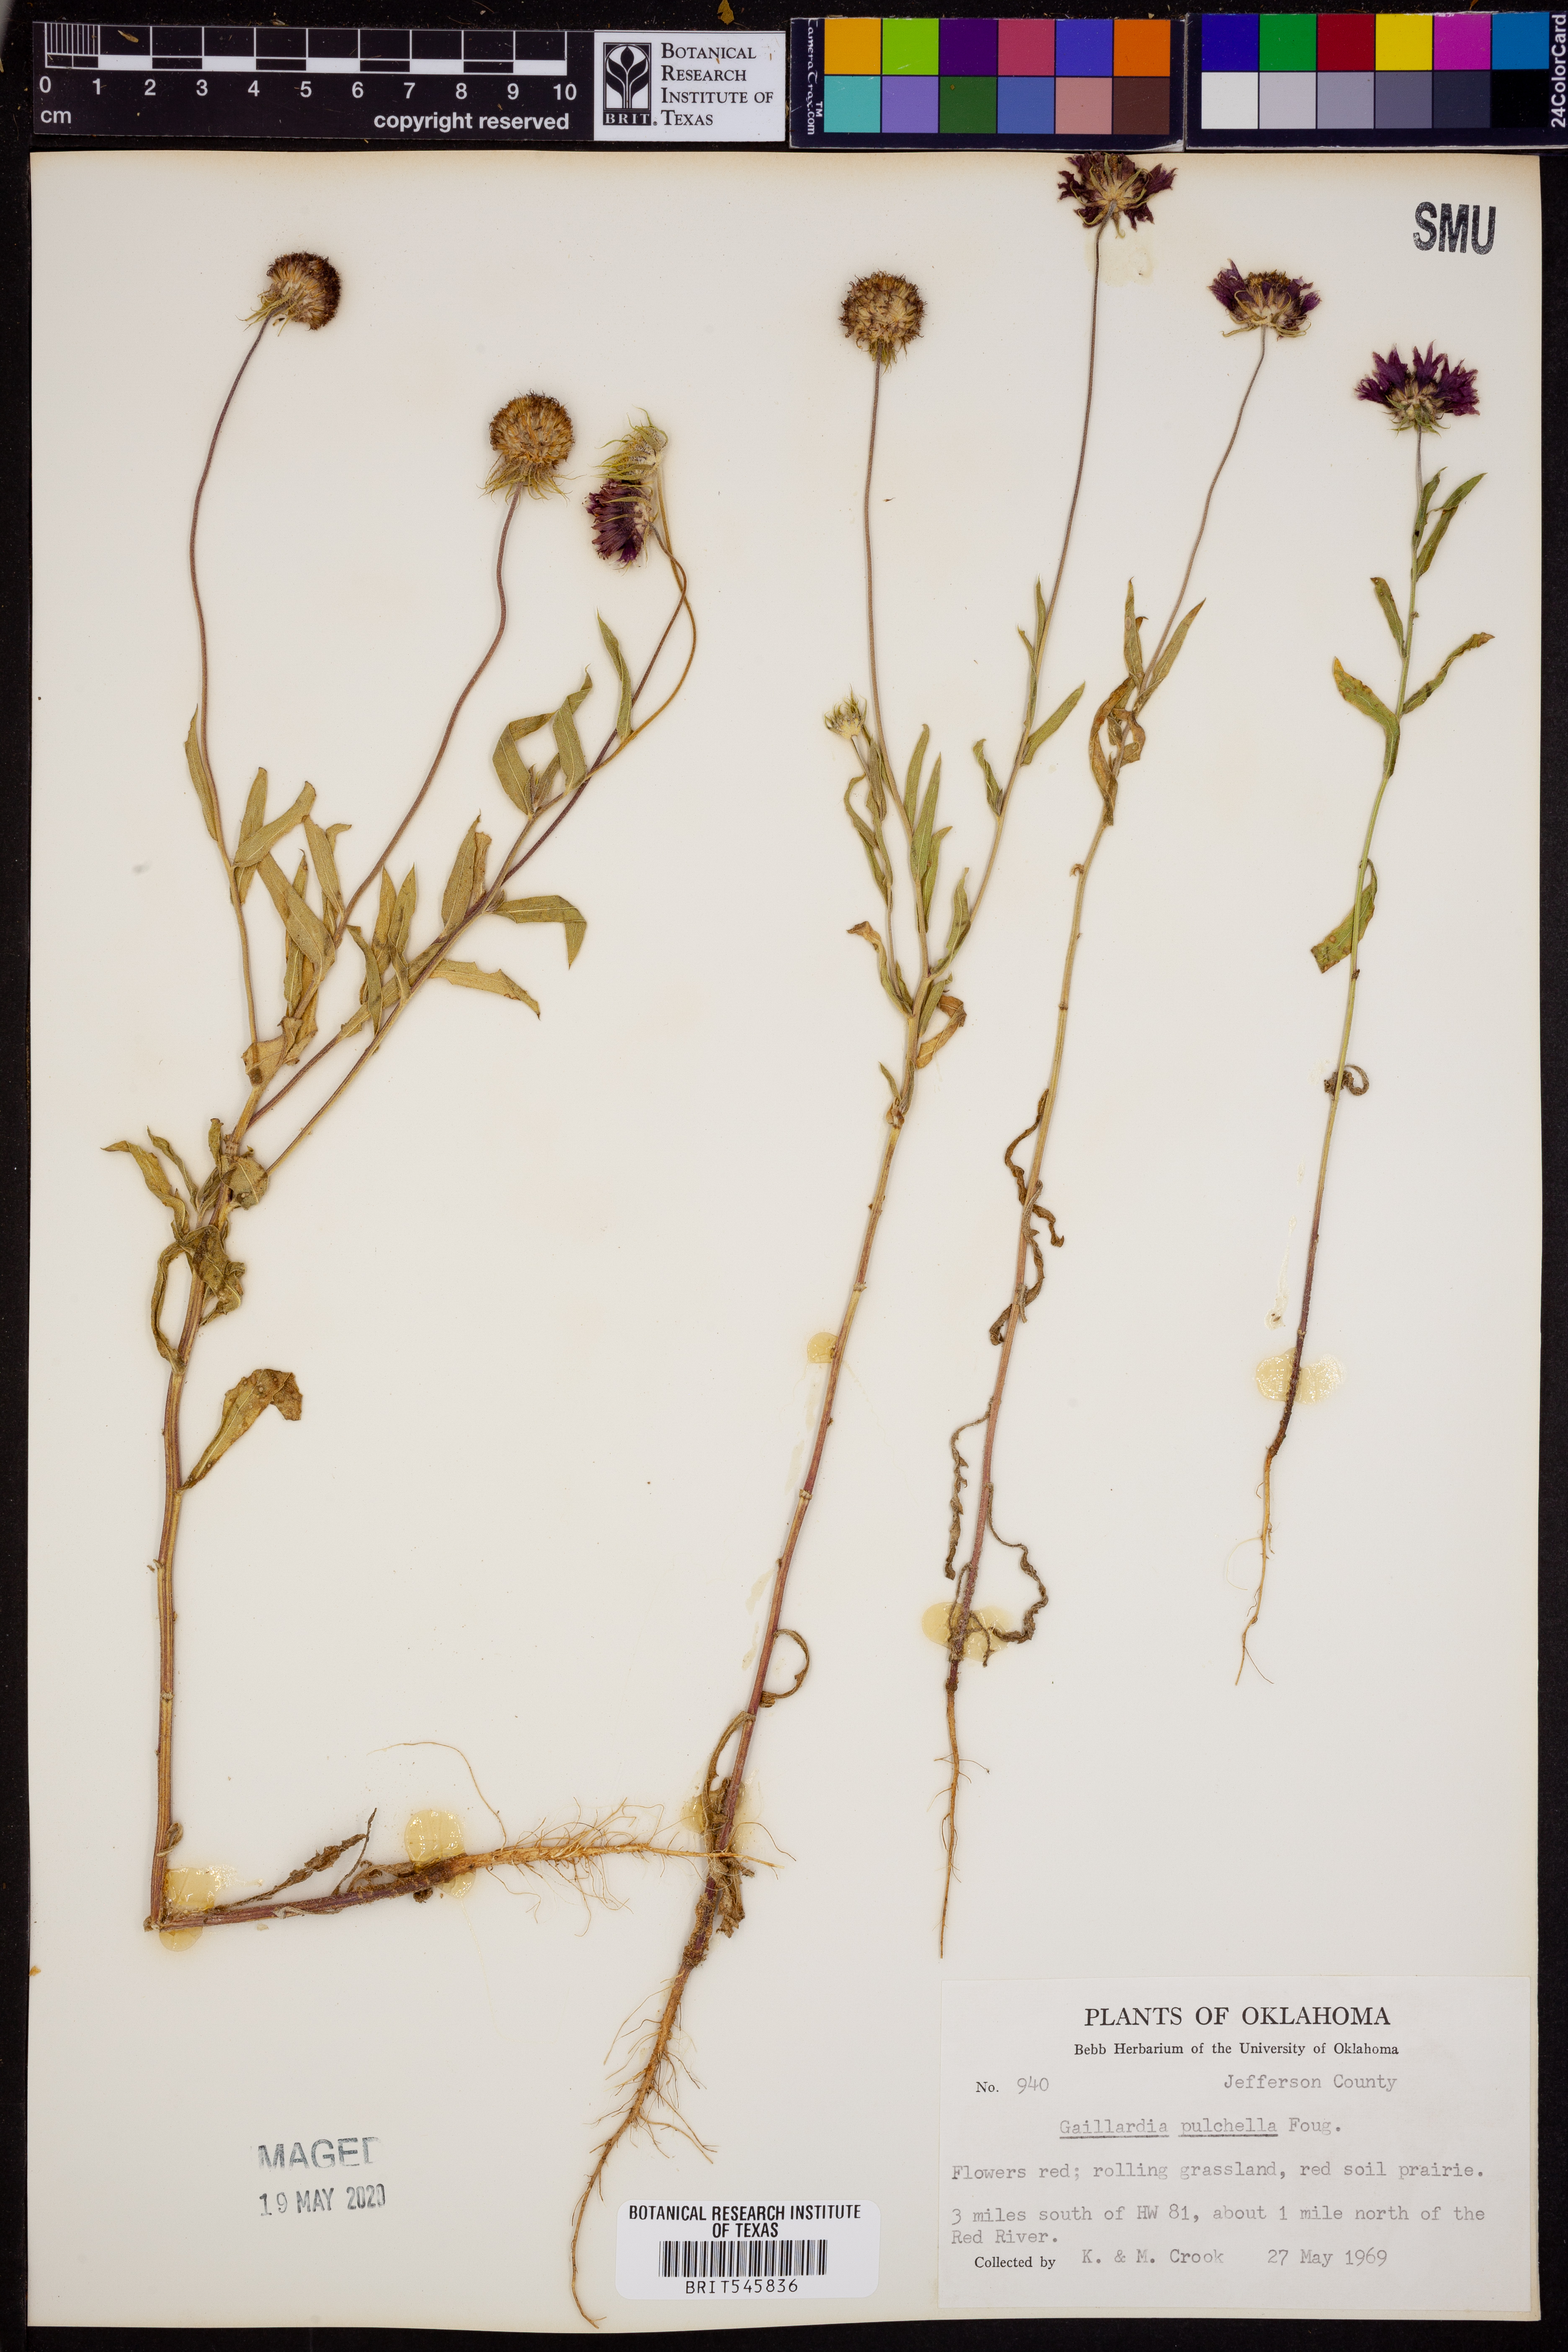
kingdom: Plantae
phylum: Tracheophyta
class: Magnoliopsida
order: Asterales
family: Asteraceae
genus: Gaillardia
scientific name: Gaillardia pulchella
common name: Firewheel
